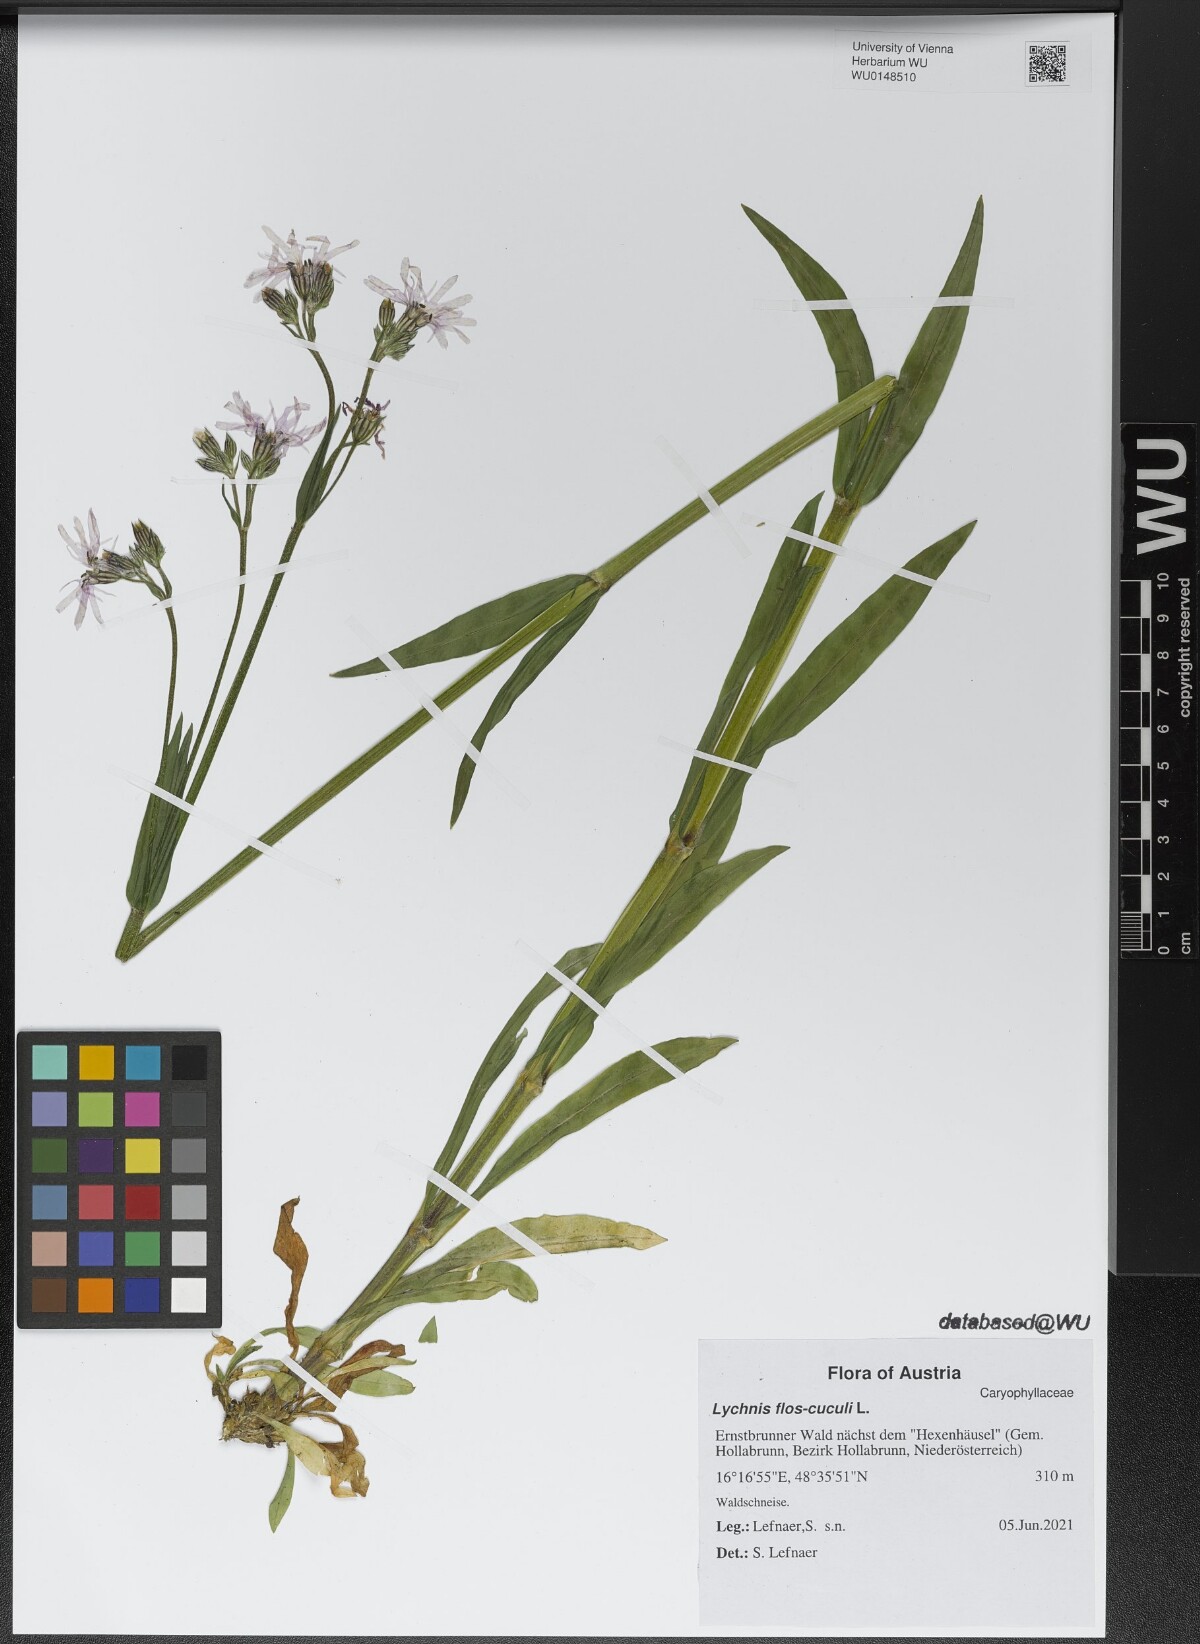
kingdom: Plantae
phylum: Tracheophyta
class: Magnoliopsida
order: Caryophyllales
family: Caryophyllaceae
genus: Silene
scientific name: Silene flos-cuculi
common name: Ragged-robin
